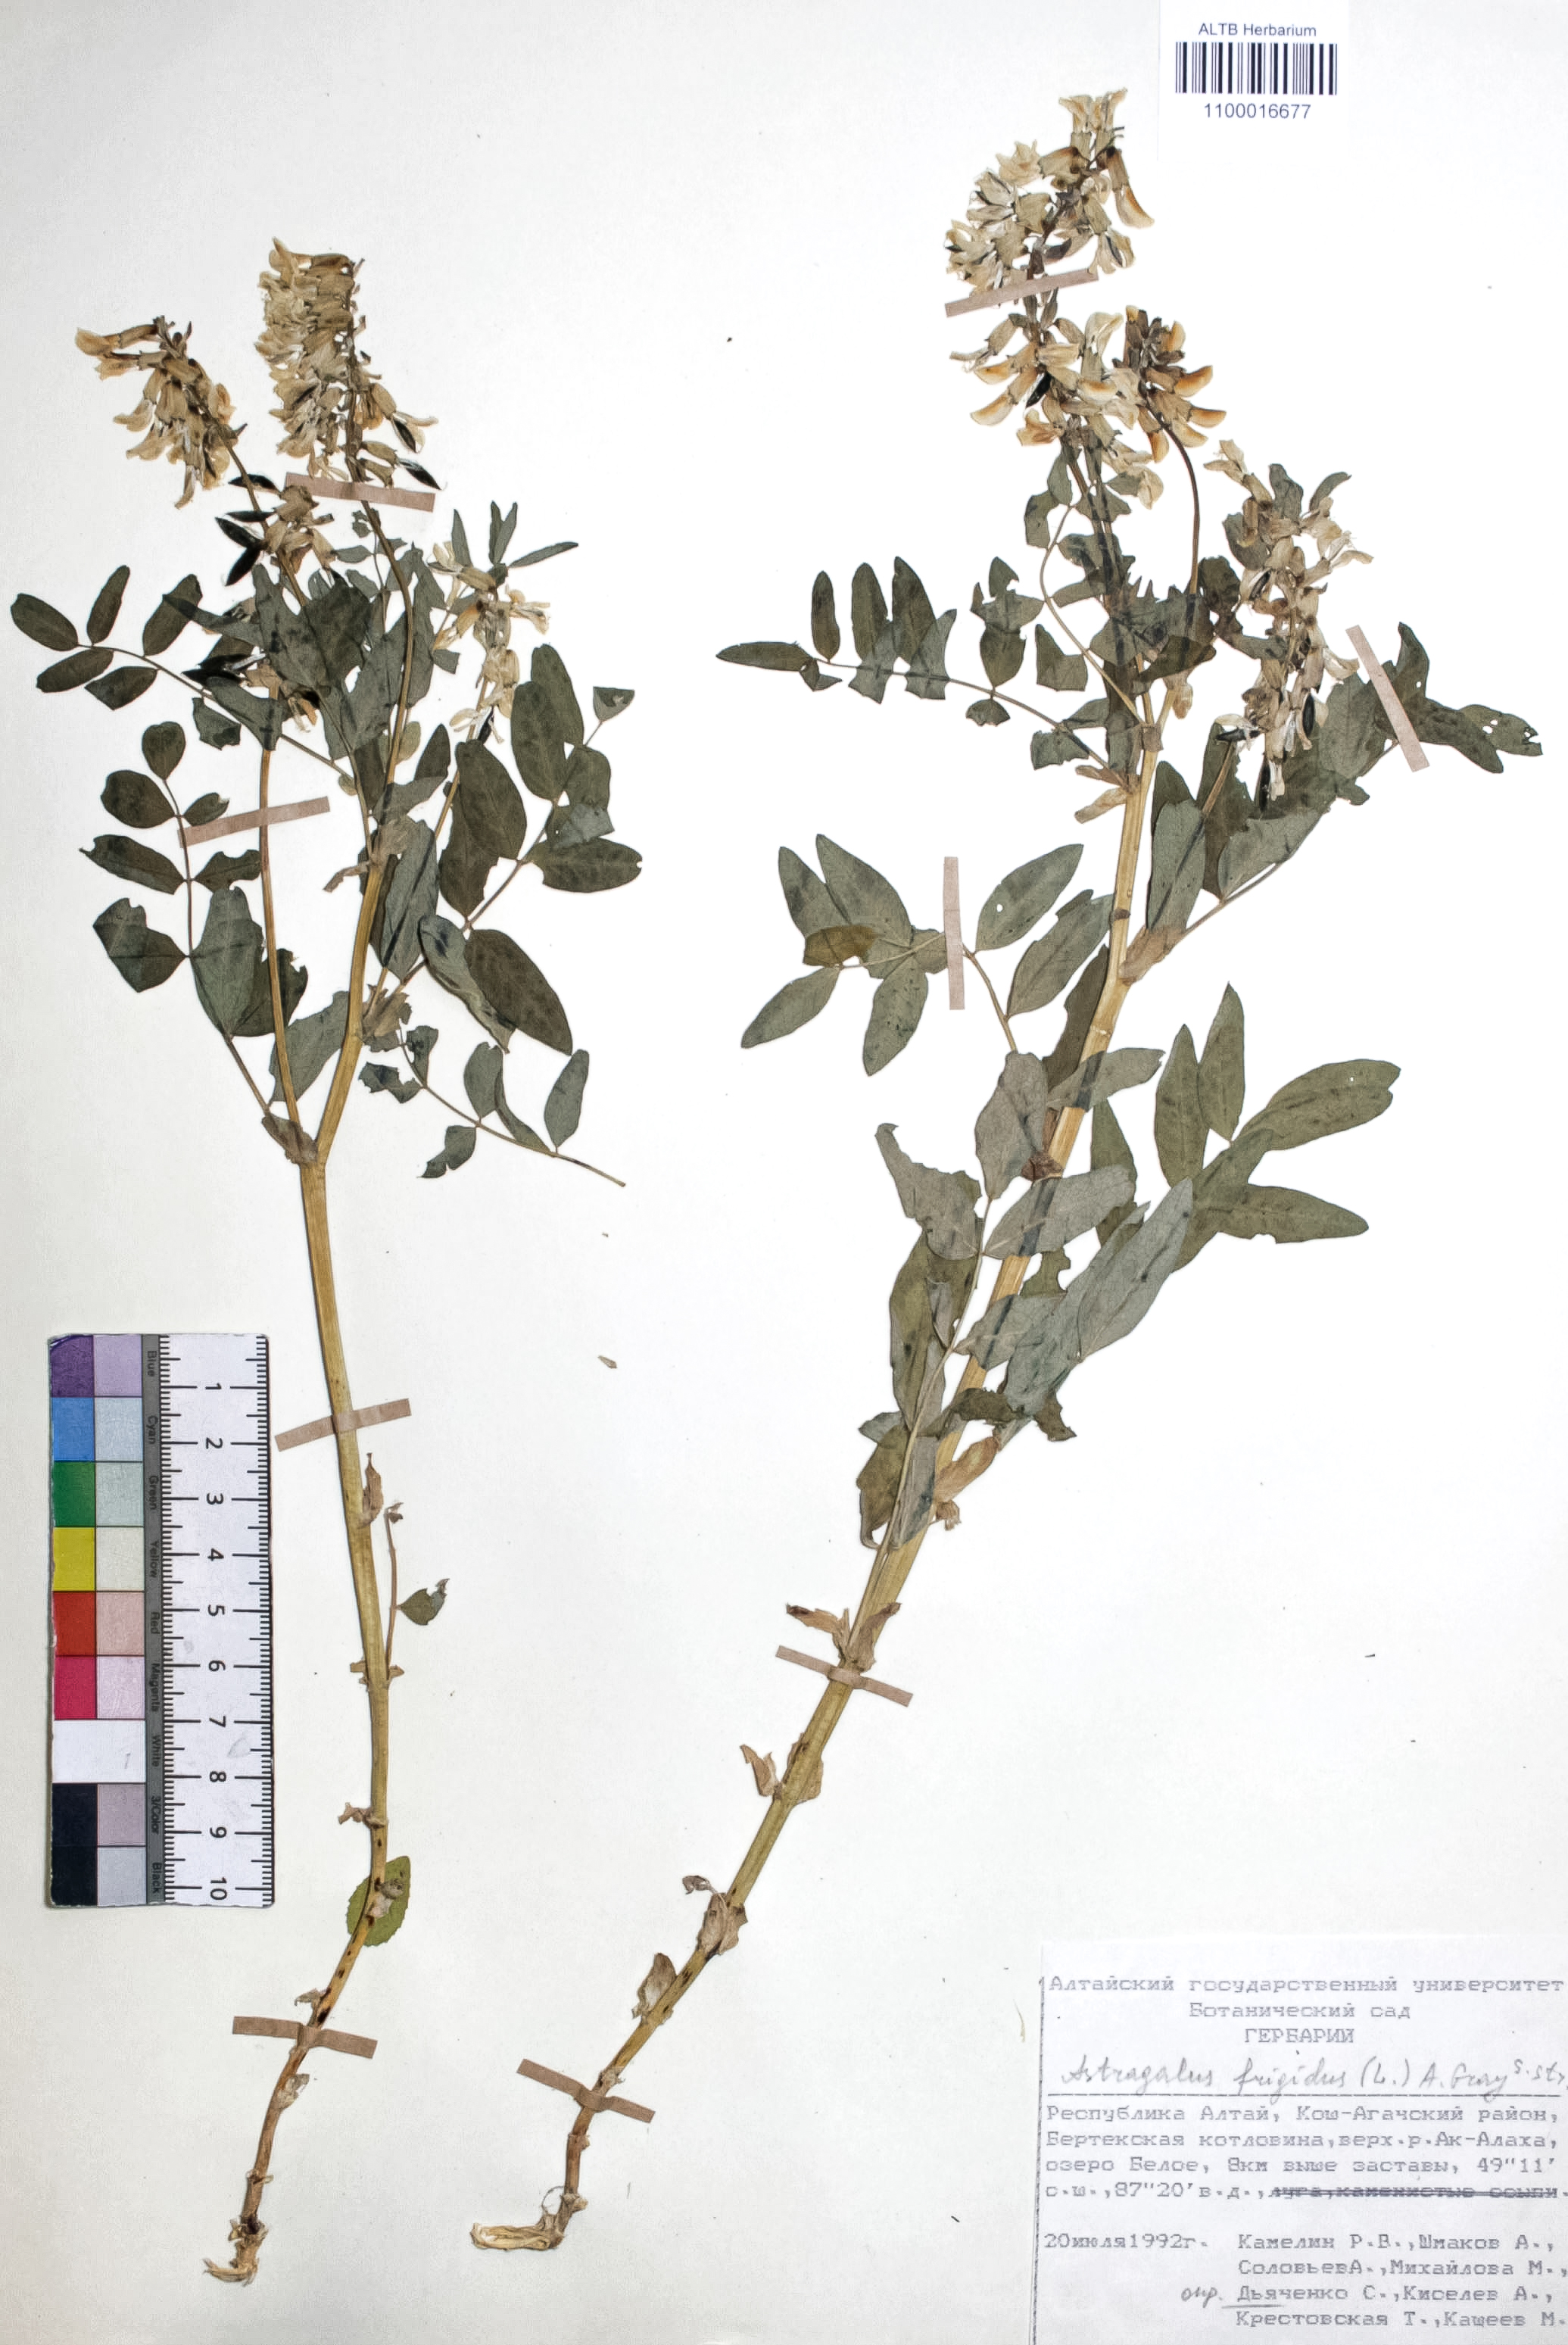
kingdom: Plantae
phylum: Tracheophyta
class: Magnoliopsida
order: Fabales
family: Fabaceae
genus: Astragalus
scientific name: Astragalus frigidus
